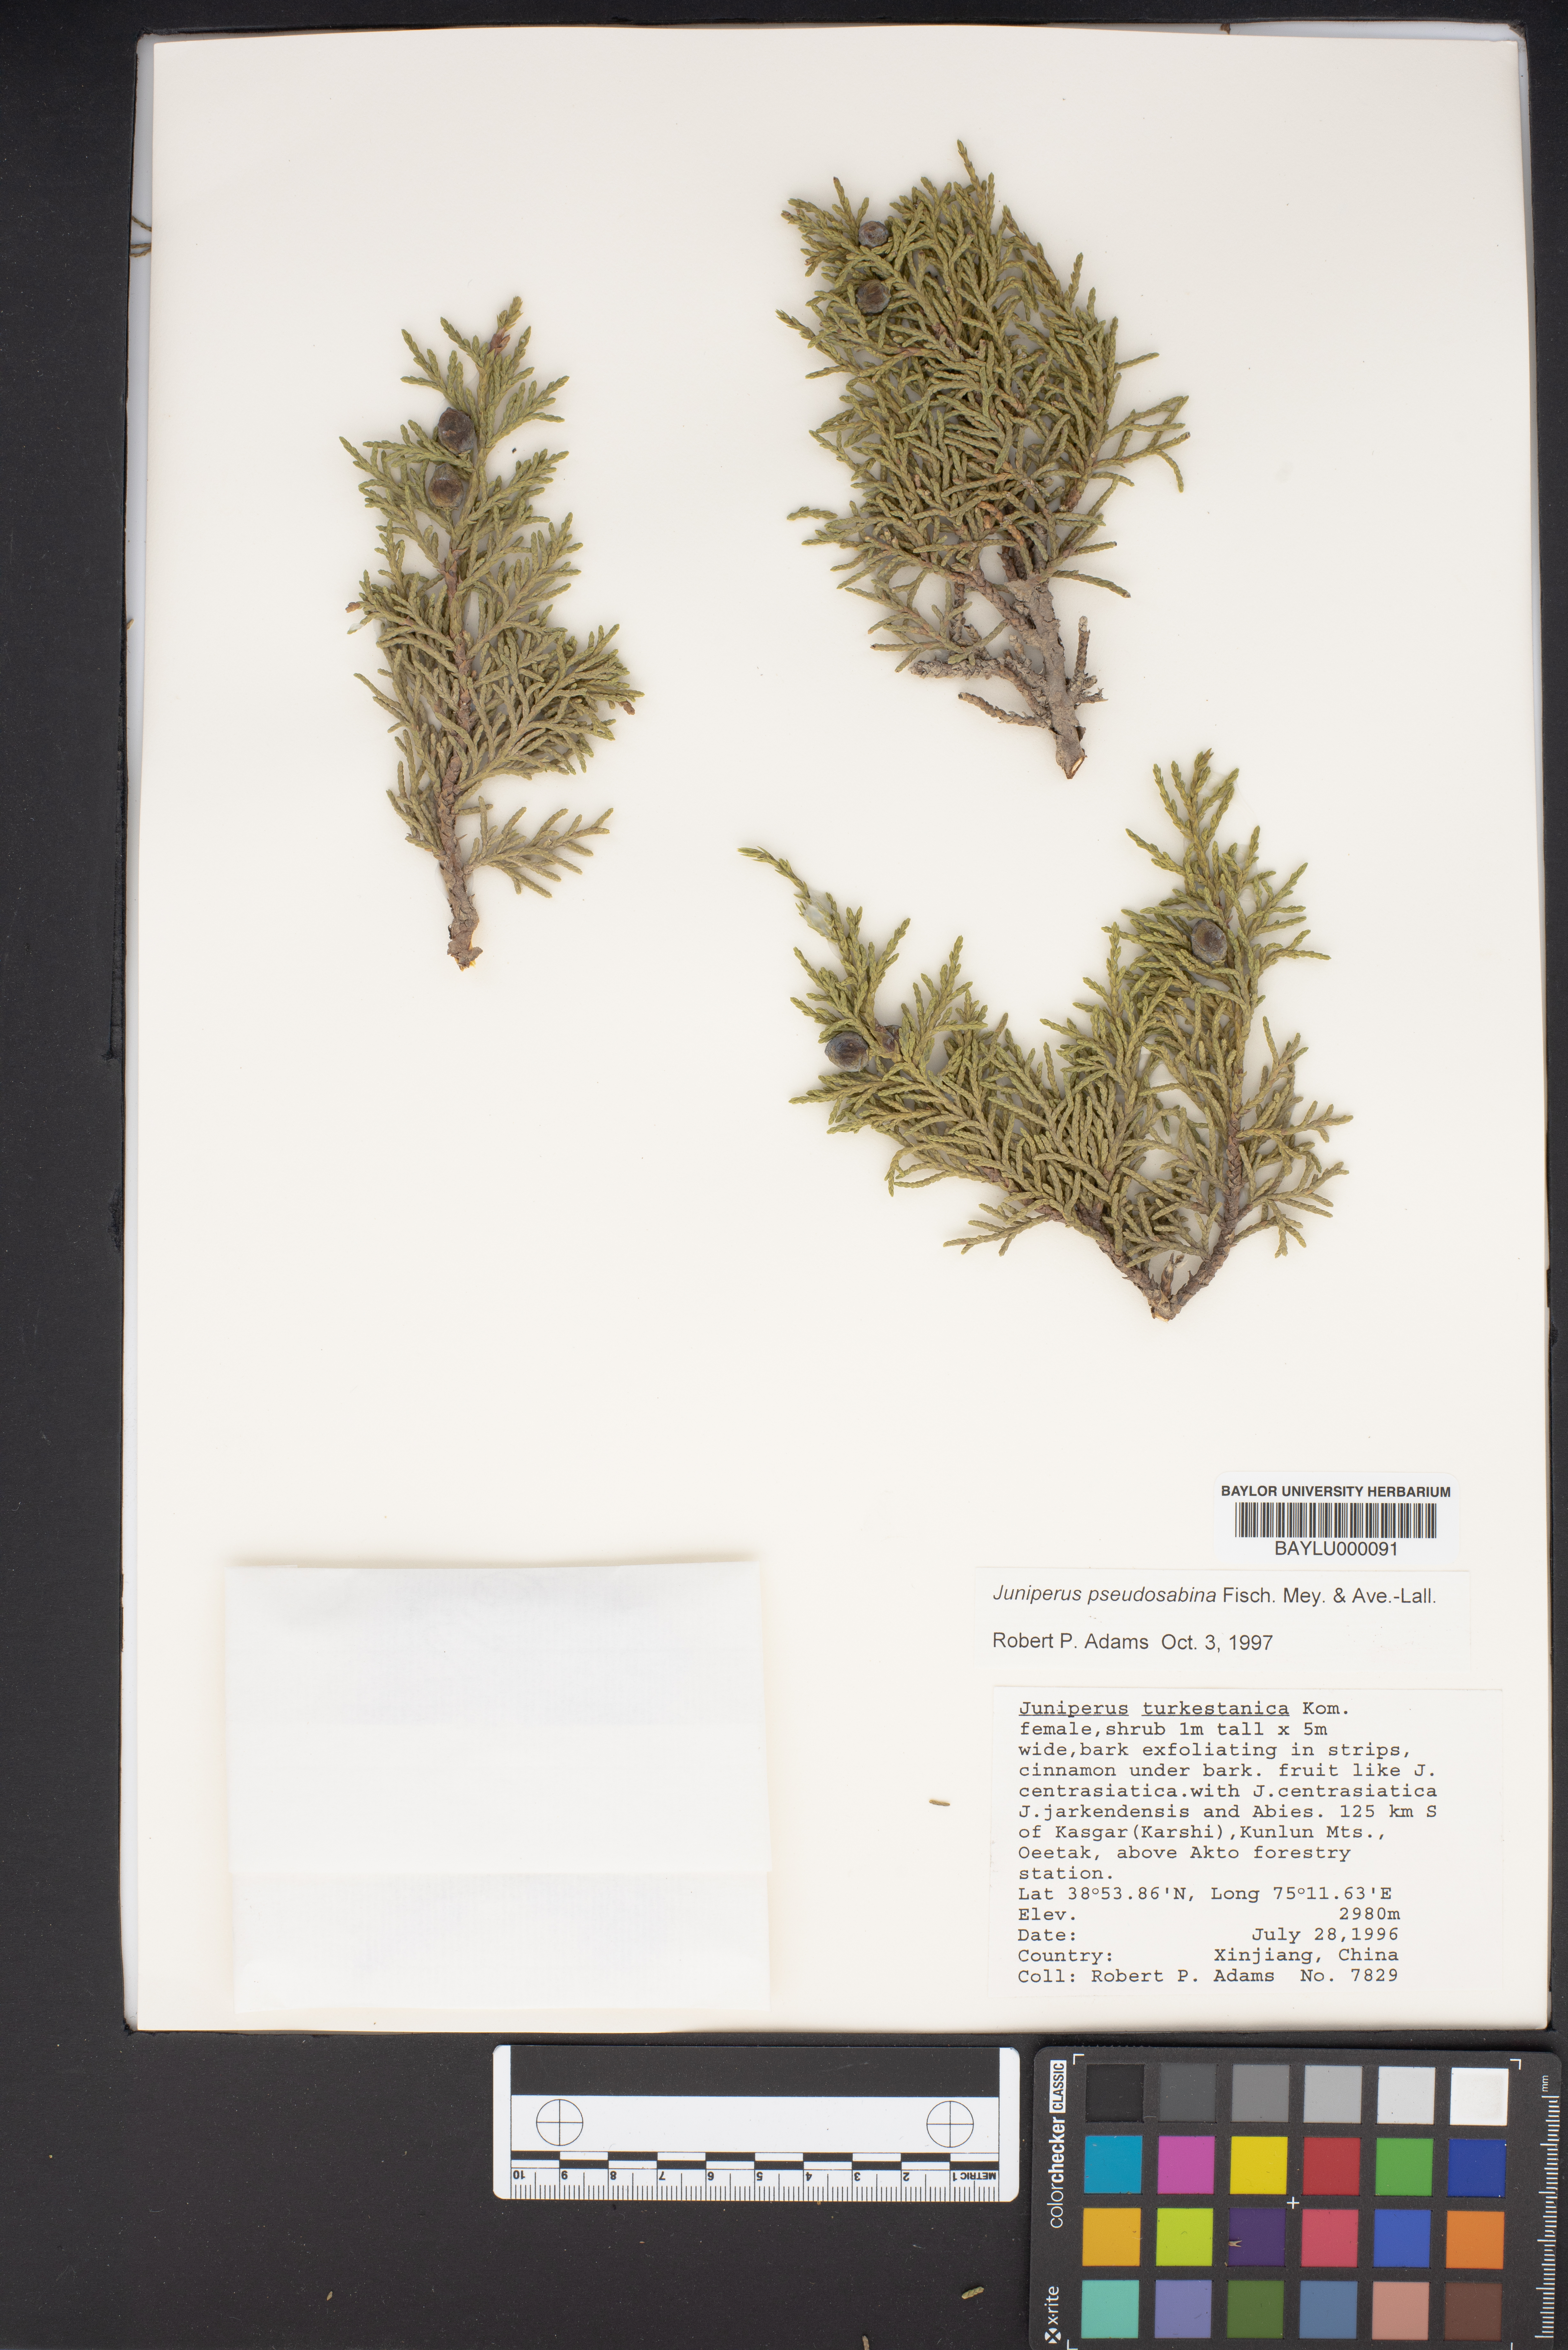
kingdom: Plantae
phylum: Tracheophyta
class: Pinopsida
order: Pinales
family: Cupressaceae
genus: Juniperus
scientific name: Juniperus pseudosabina
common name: Turkestan juniper
